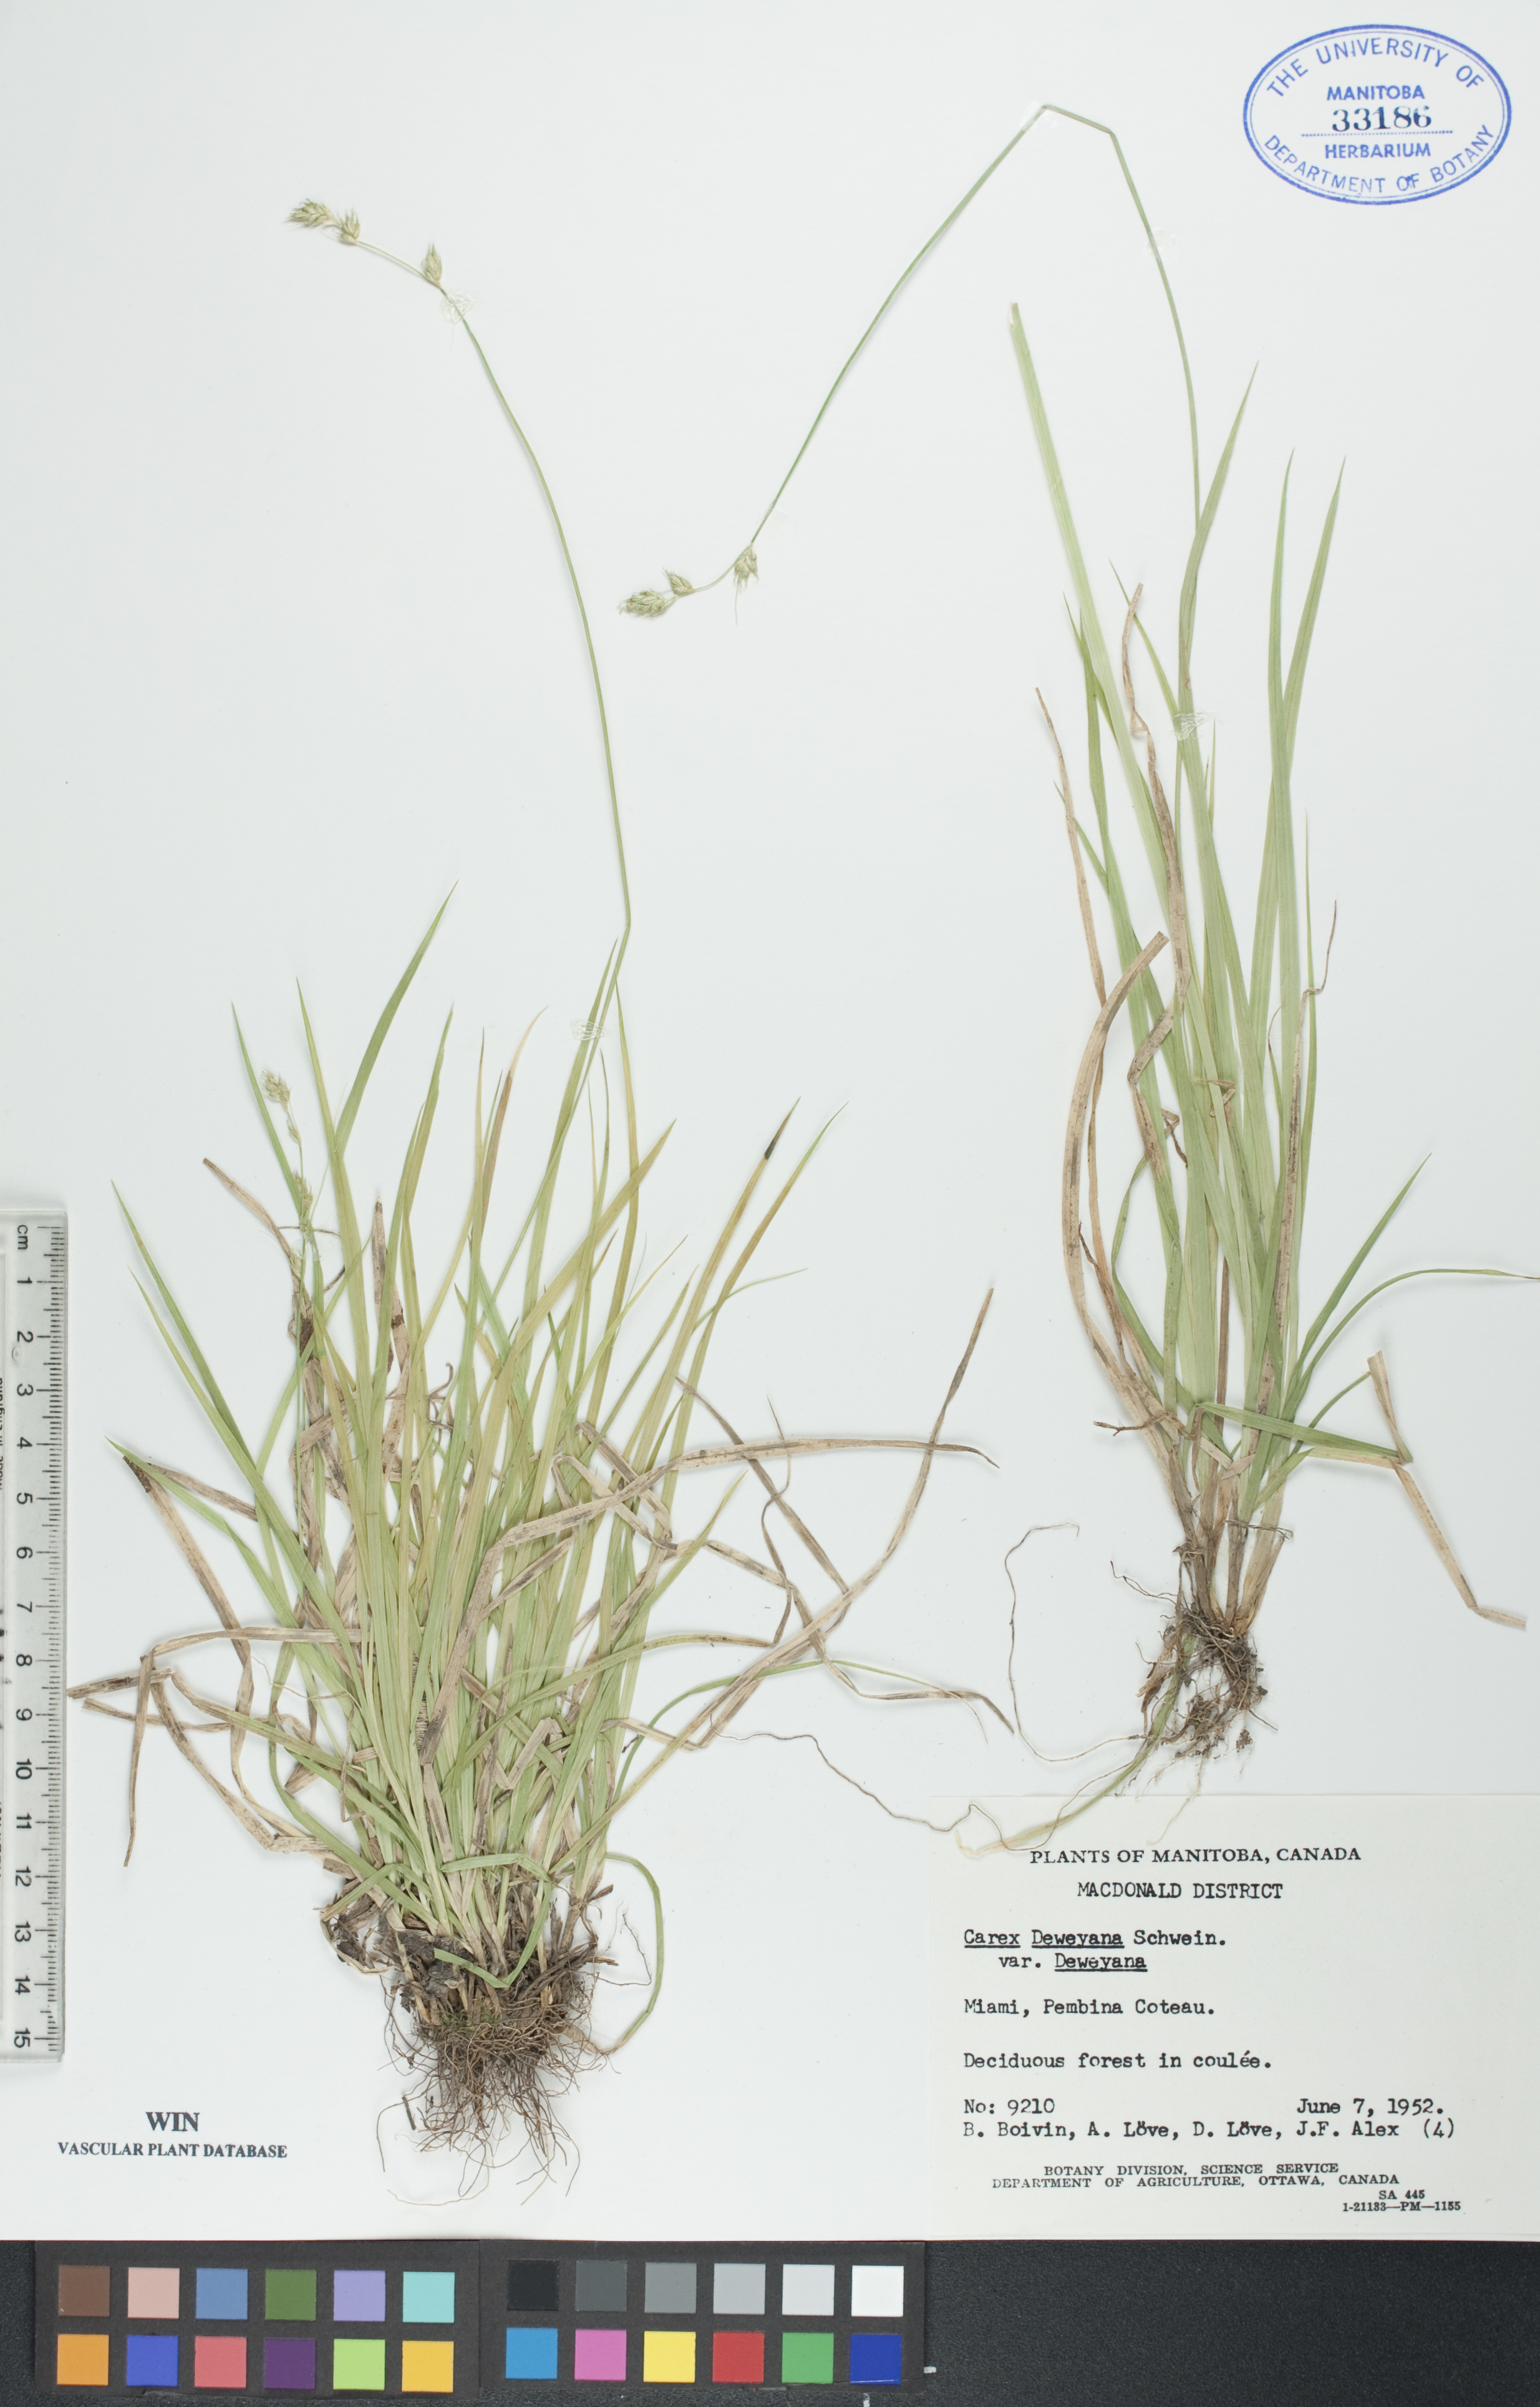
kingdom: Plantae
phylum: Tracheophyta
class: Liliopsida
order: Poales
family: Cyperaceae
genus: Carex
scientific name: Carex deweyana
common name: Dewey's sedge
